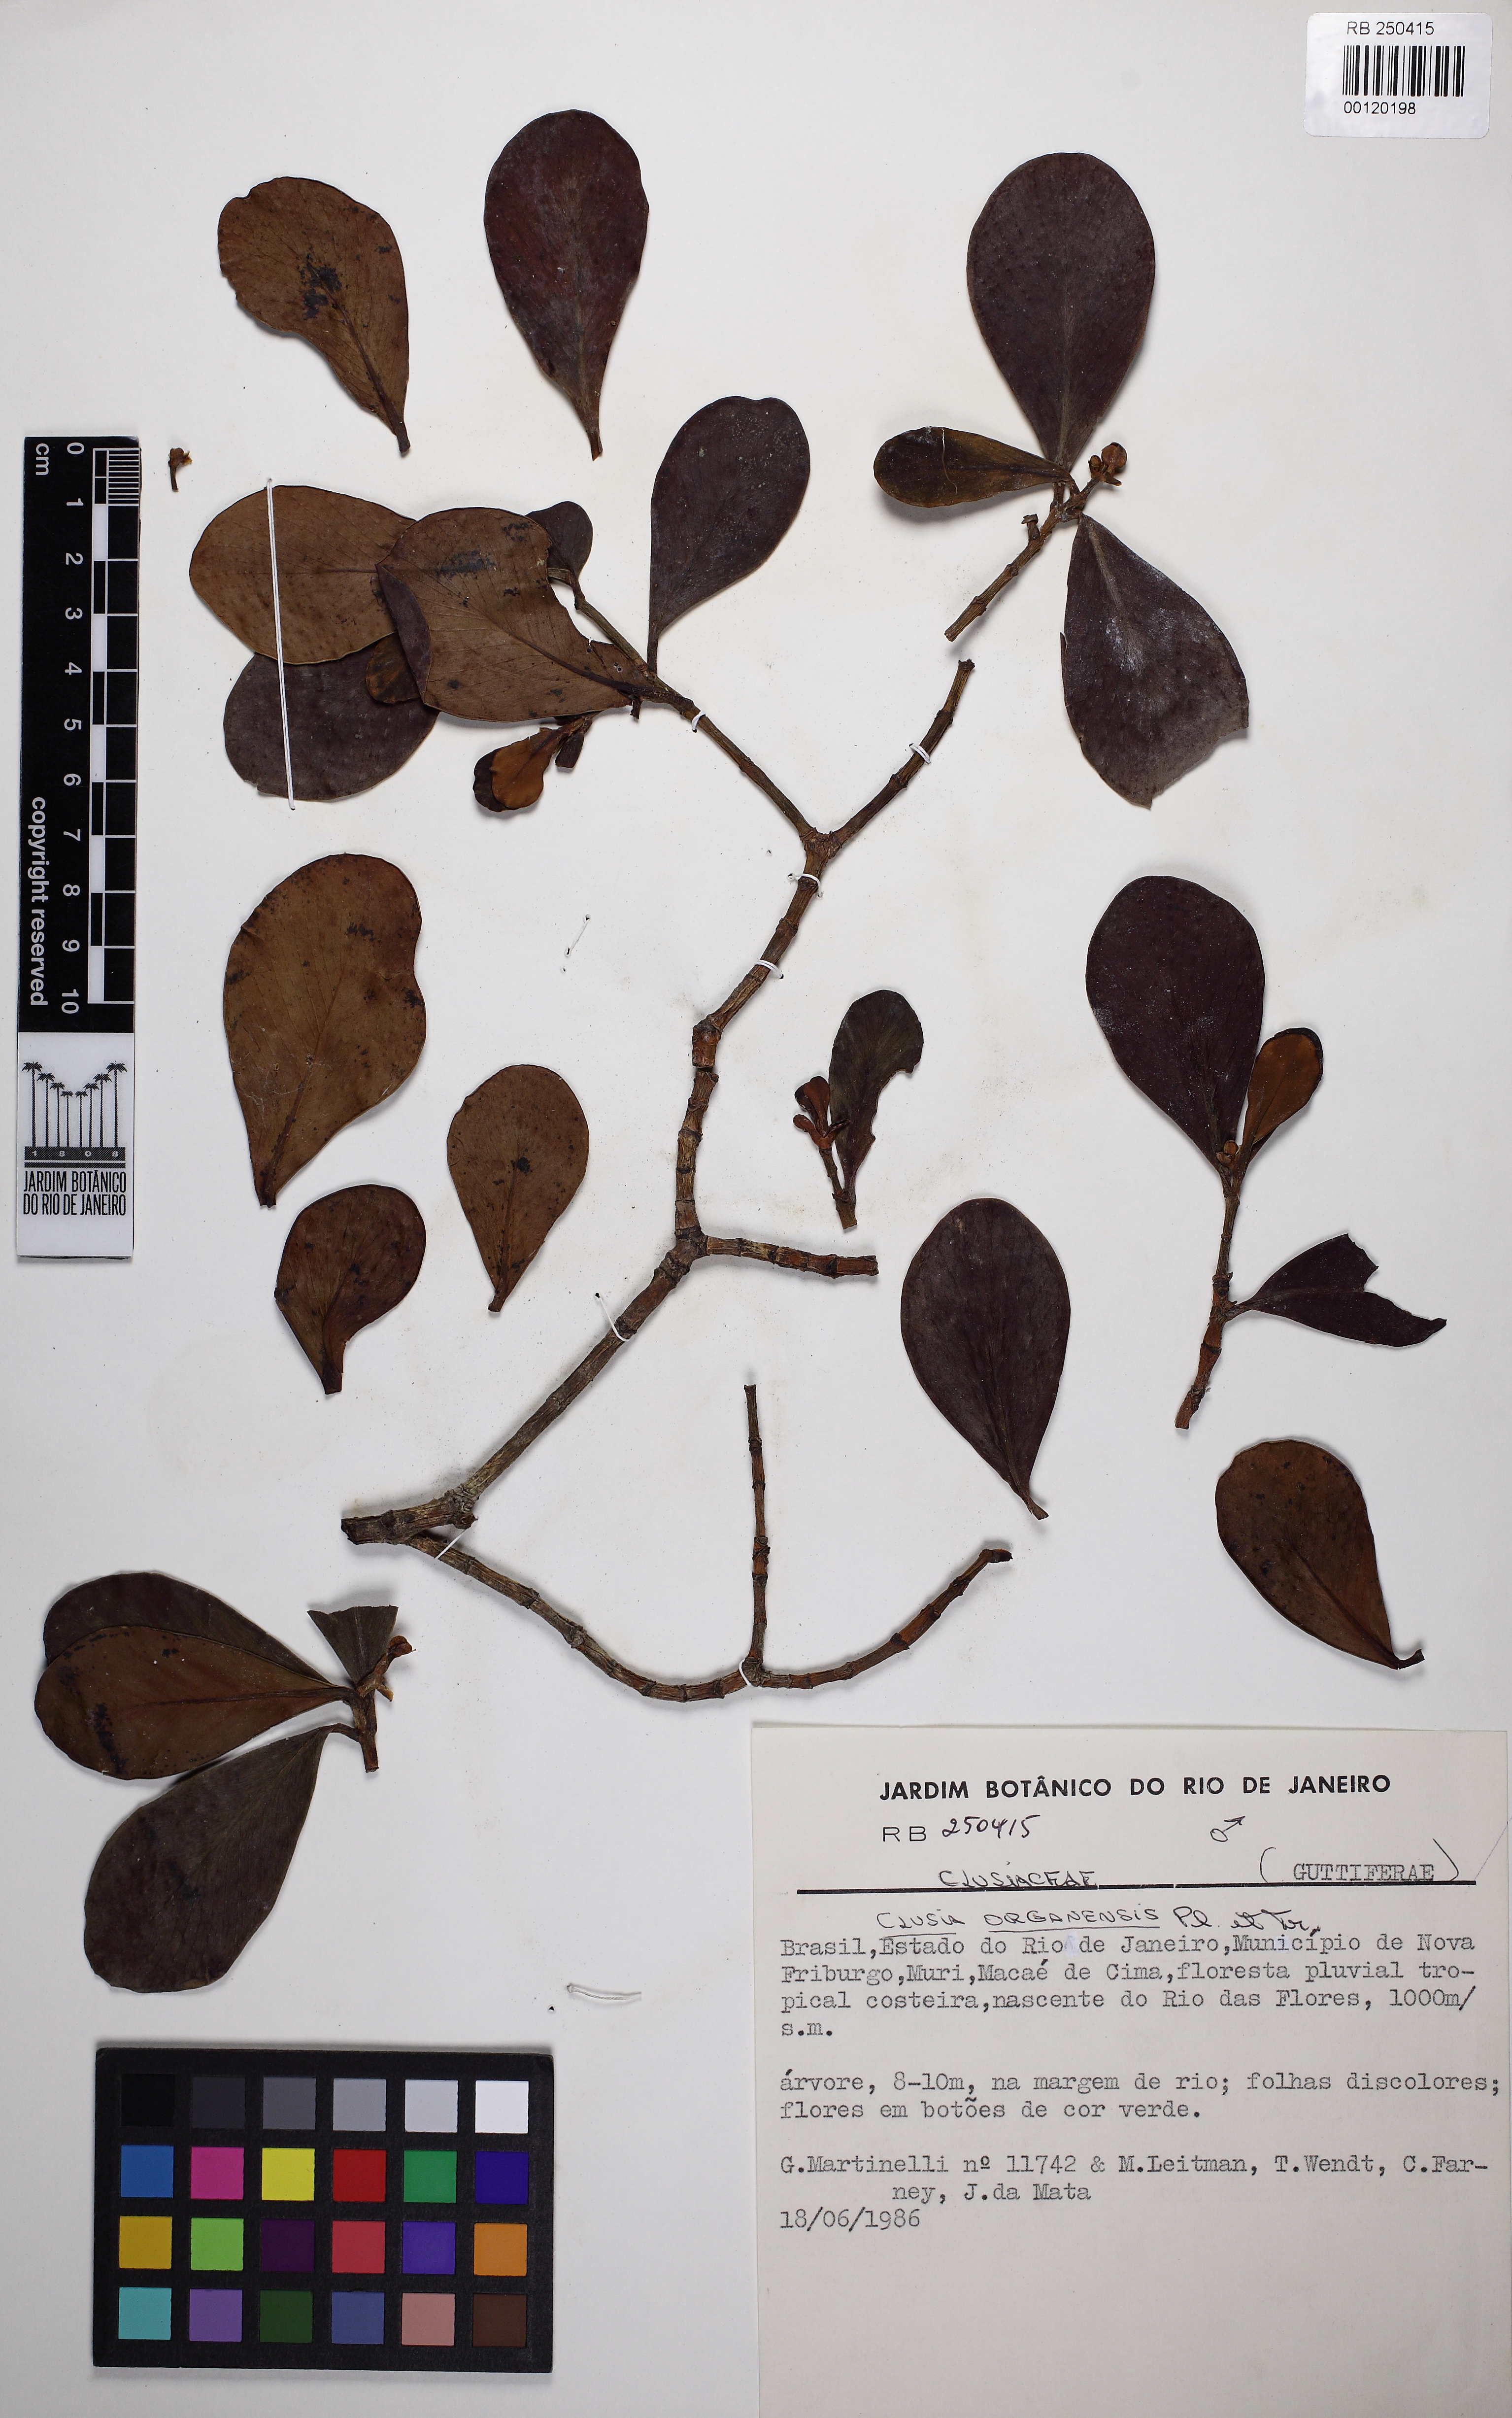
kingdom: Plantae
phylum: Tracheophyta
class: Magnoliopsida
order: Malpighiales
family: Clusiaceae
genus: Clusia
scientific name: Clusia organensis
